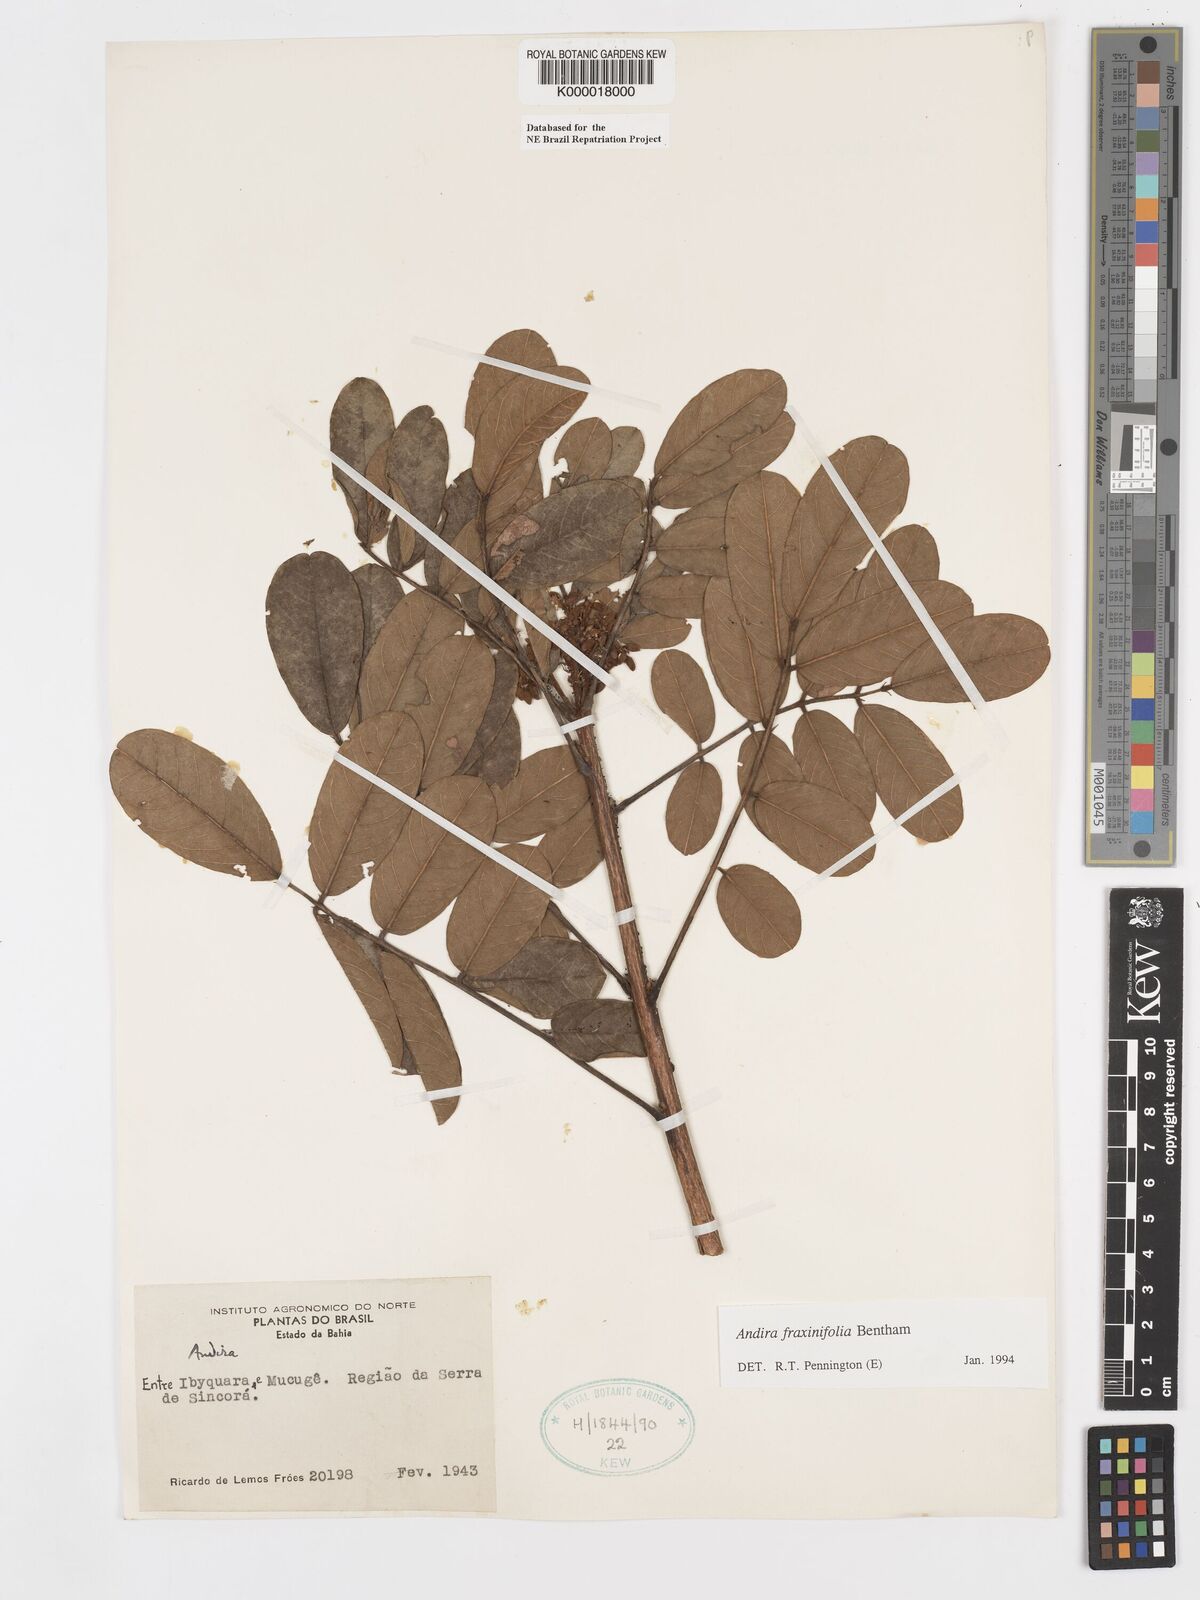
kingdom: Plantae
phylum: Tracheophyta
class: Magnoliopsida
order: Fabales
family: Fabaceae
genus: Andira
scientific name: Andira fraxinifolia
